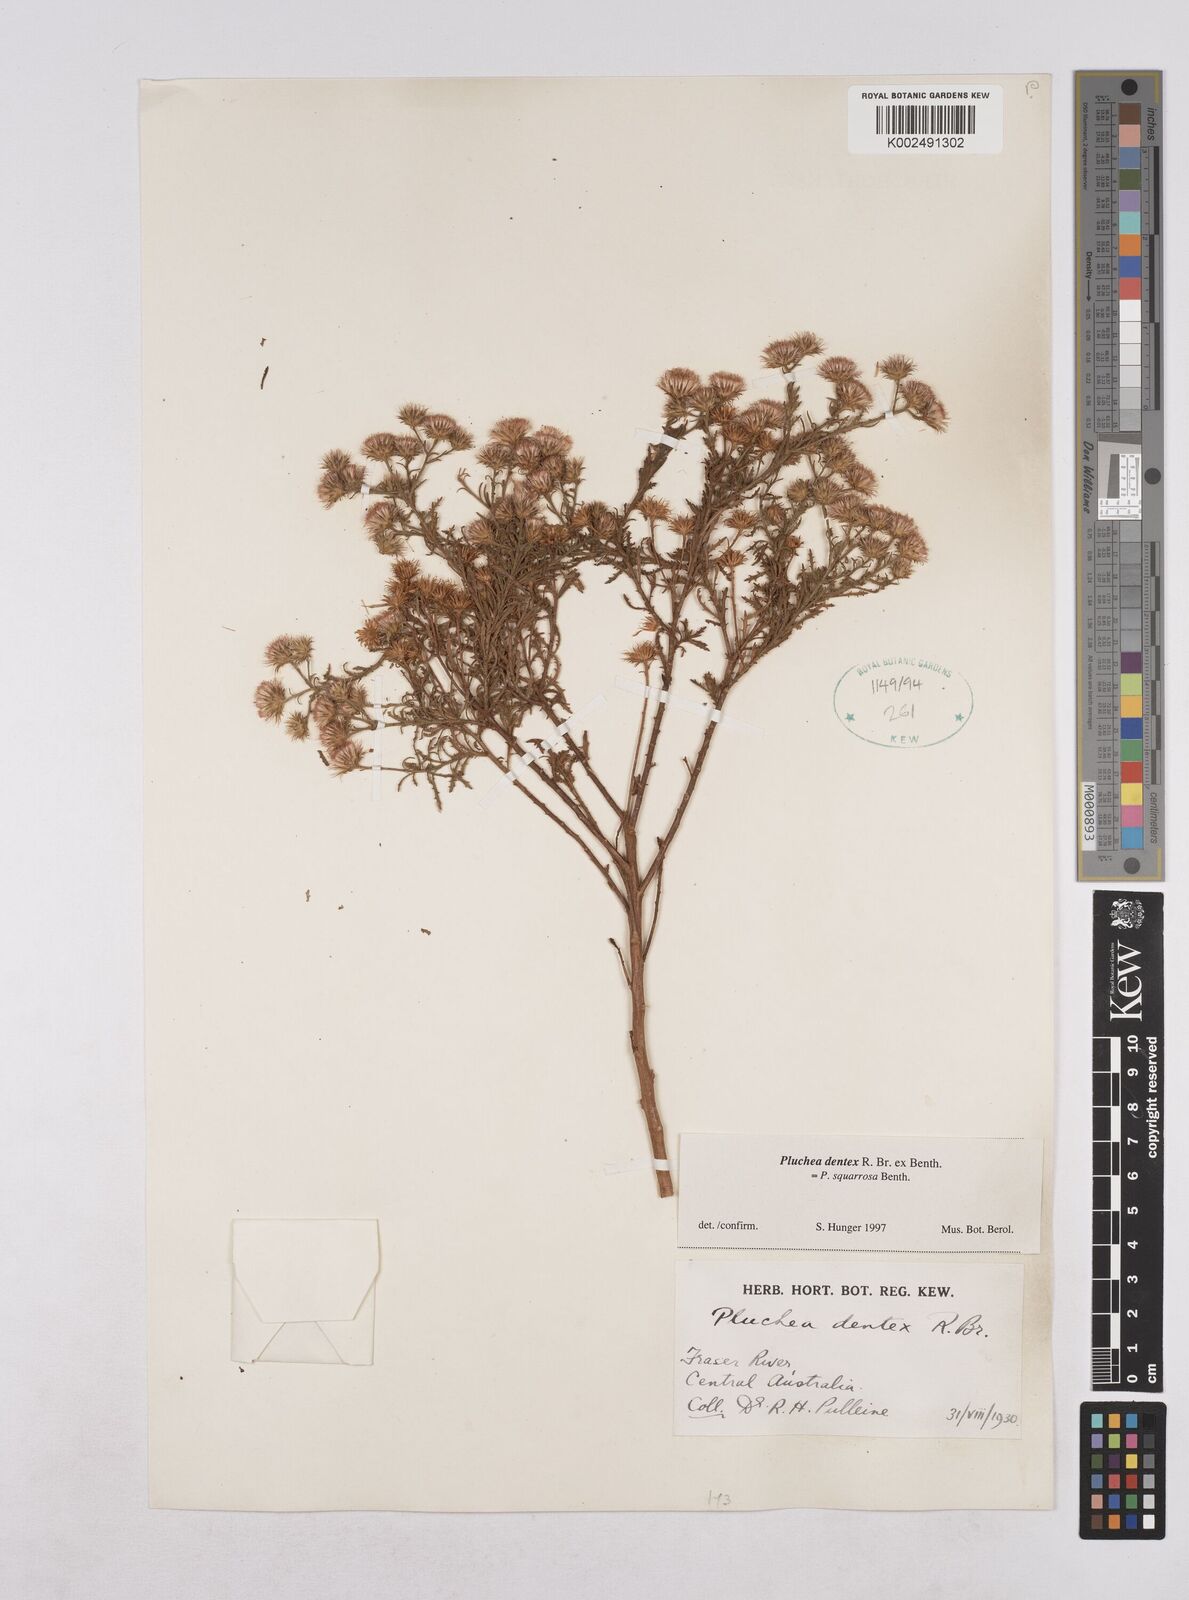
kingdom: Plantae
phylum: Tracheophyta
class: Magnoliopsida
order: Asterales
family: Asteraceae
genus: Pluchea
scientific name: Pluchea dentex
